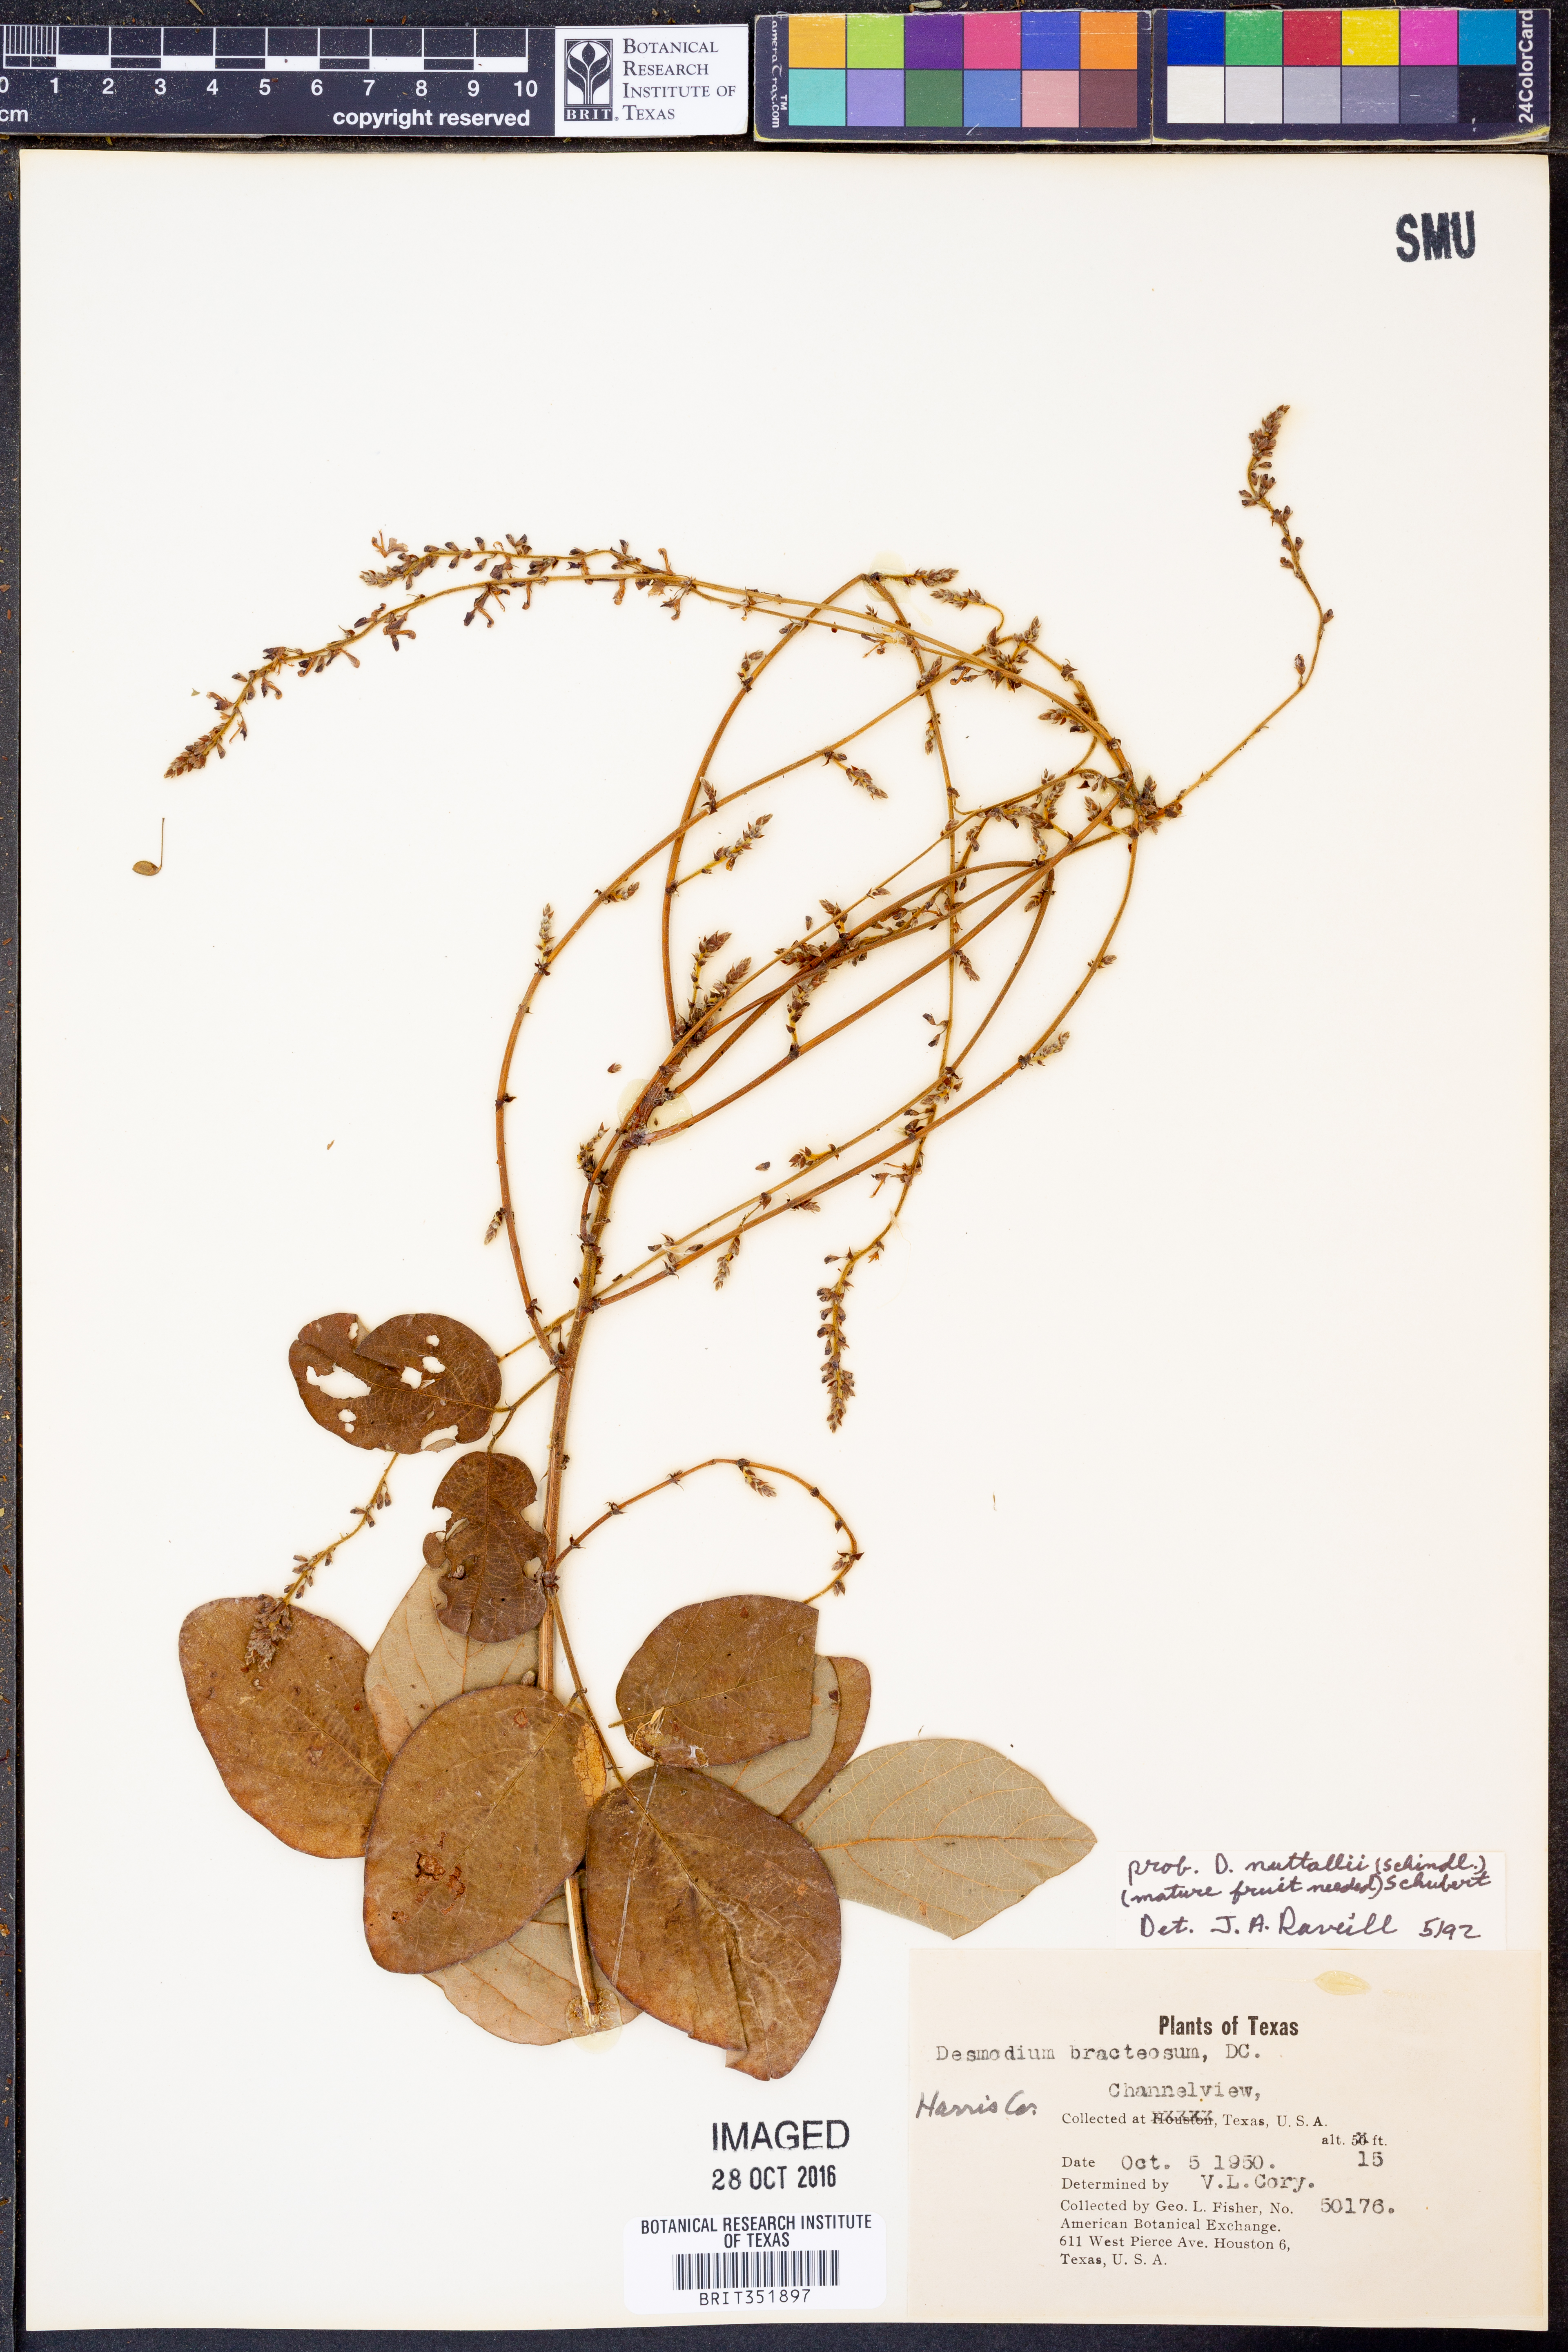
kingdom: Plantae
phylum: Tracheophyta
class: Magnoliopsida
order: Fabales
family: Fabaceae
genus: Desmodium
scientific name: Desmodium nuttallii
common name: Nuttall's tick trefoil
